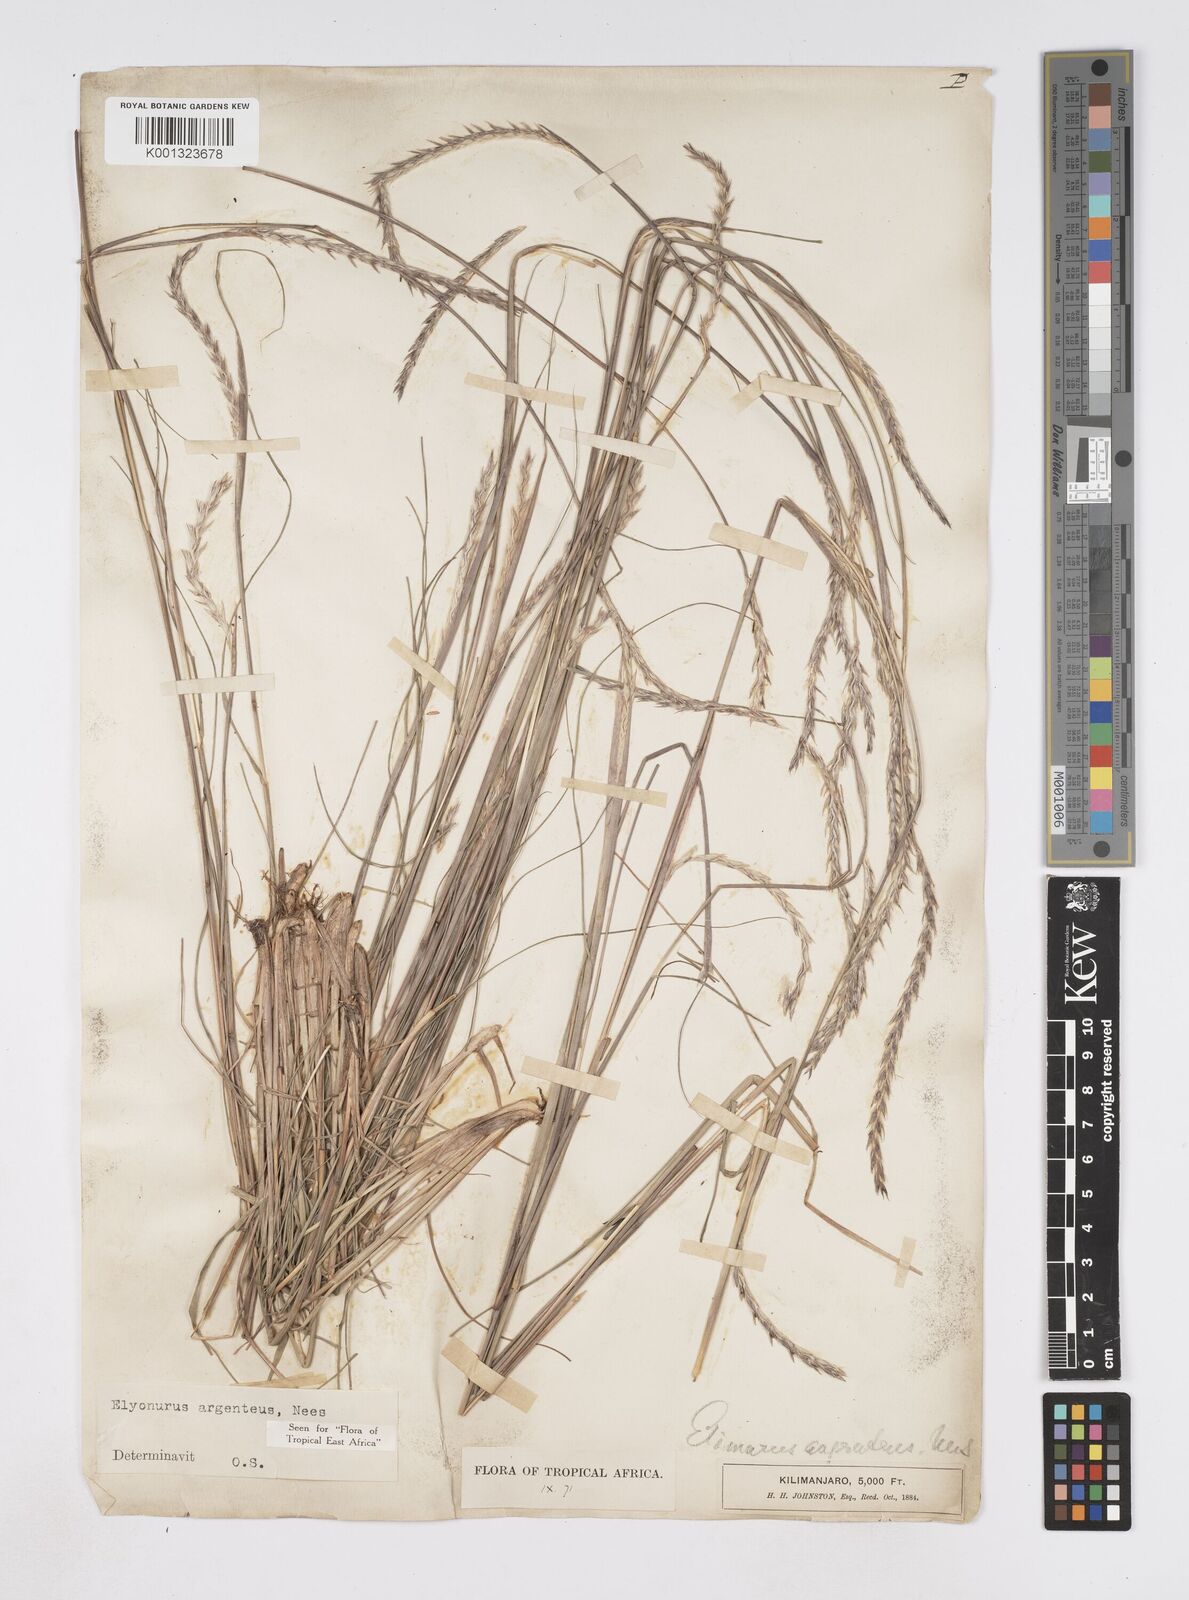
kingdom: Plantae
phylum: Tracheophyta
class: Liliopsida
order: Poales
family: Poaceae
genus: Elionurus
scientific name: Elionurus muticus
